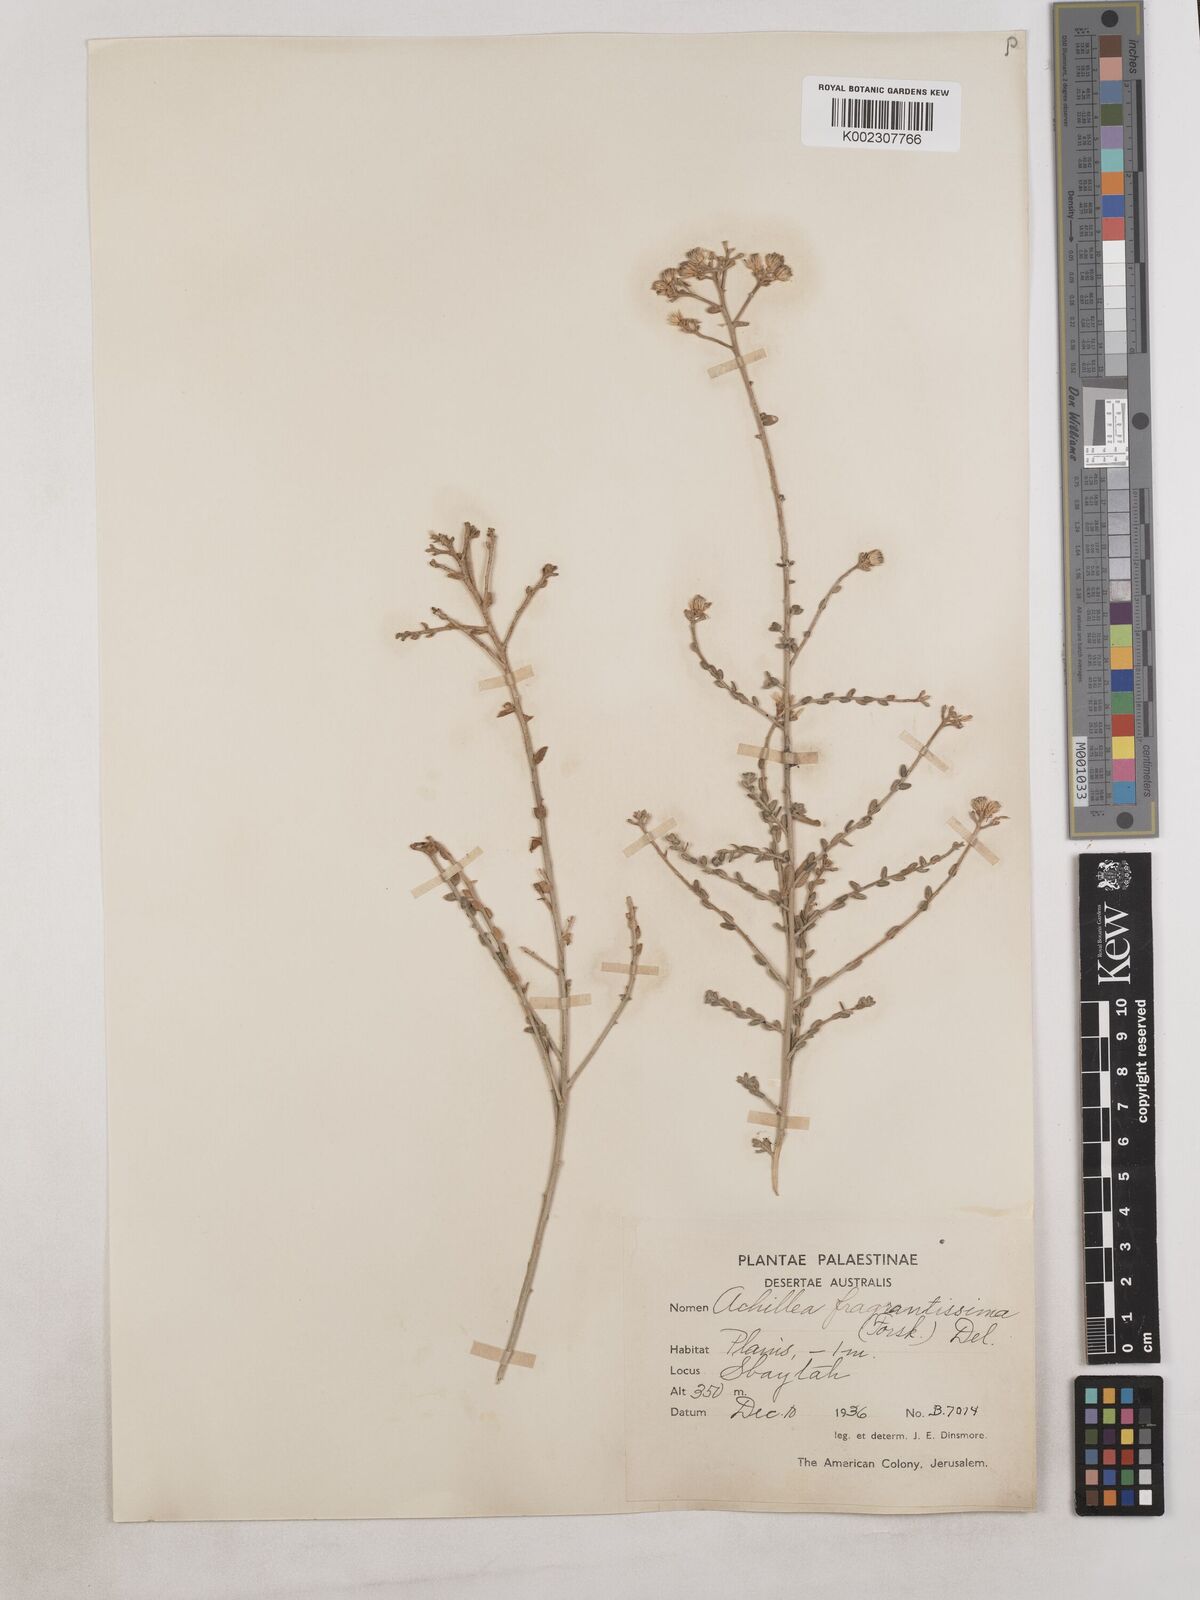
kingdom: Plantae
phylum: Tracheophyta
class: Magnoliopsida
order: Asterales
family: Asteraceae
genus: Achillea
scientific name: Achillea fragrantissima
